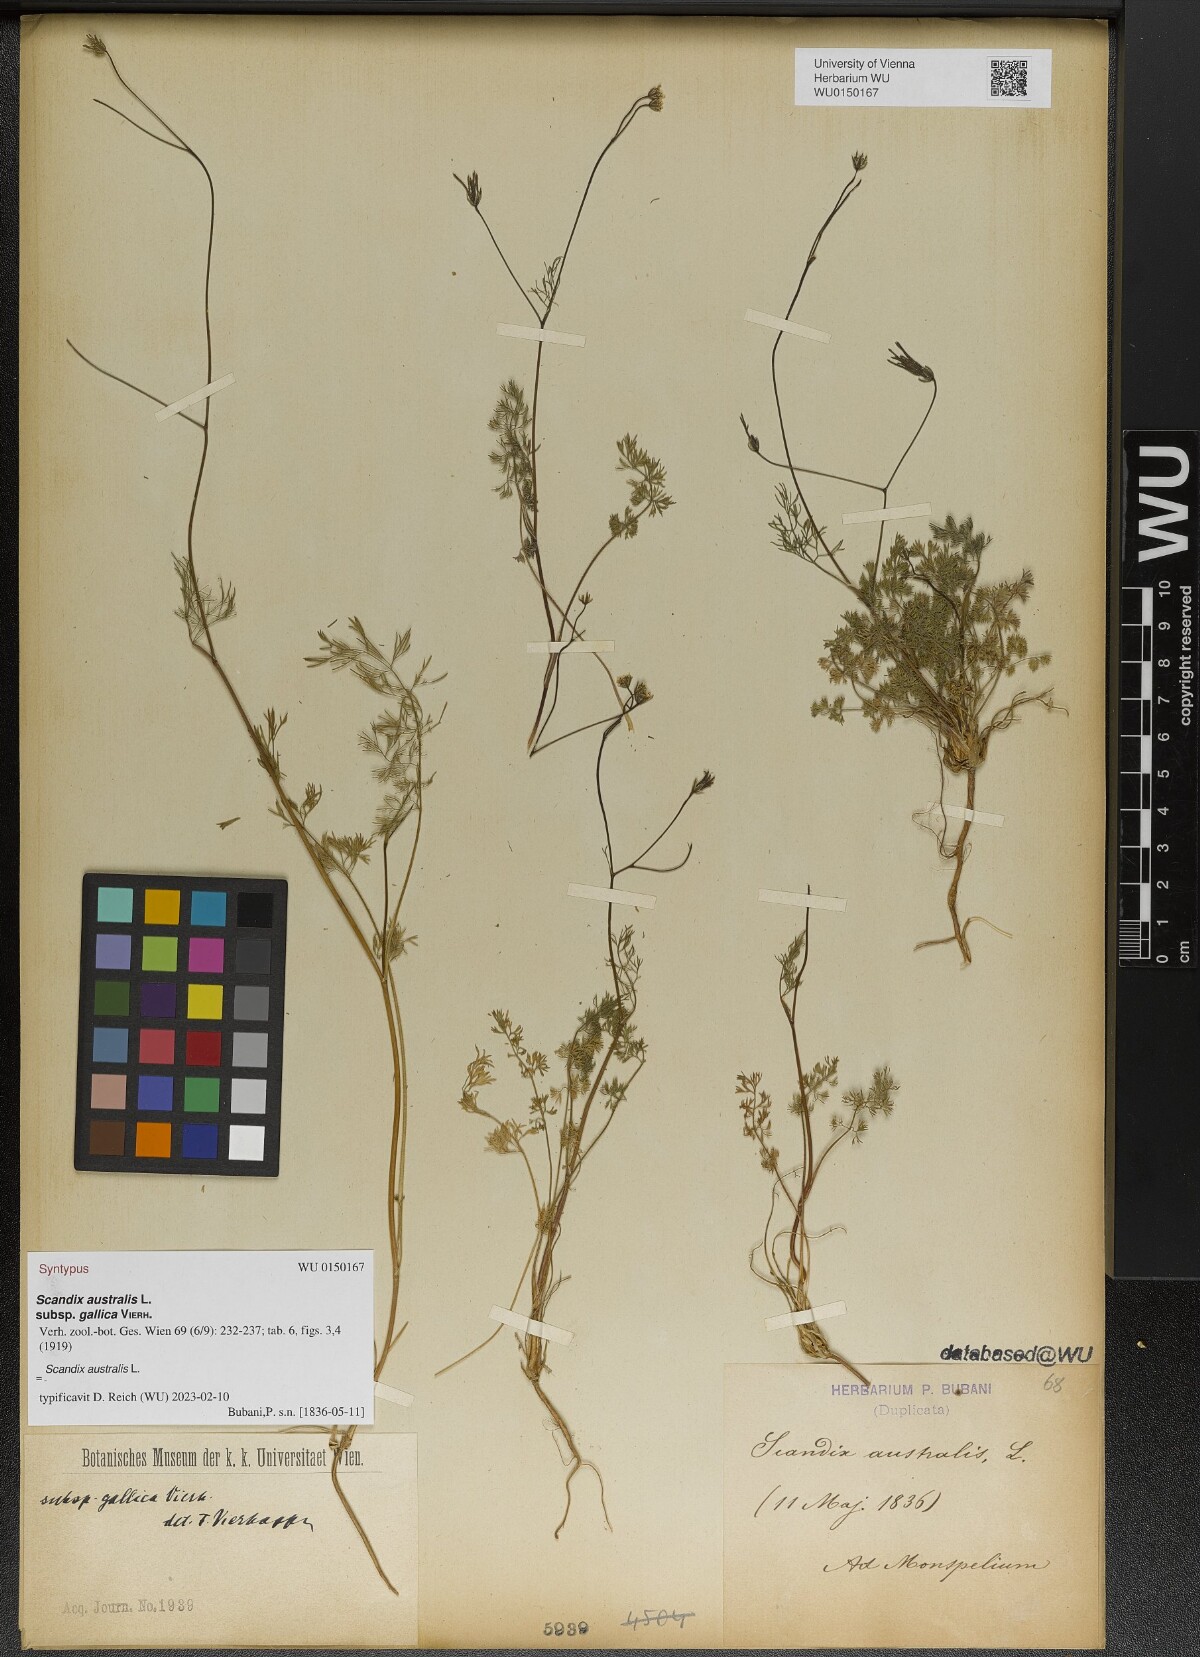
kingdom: Plantae
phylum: Tracheophyta
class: Magnoliopsida
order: Apiales
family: Apiaceae
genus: Scandix
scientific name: Scandix australis
